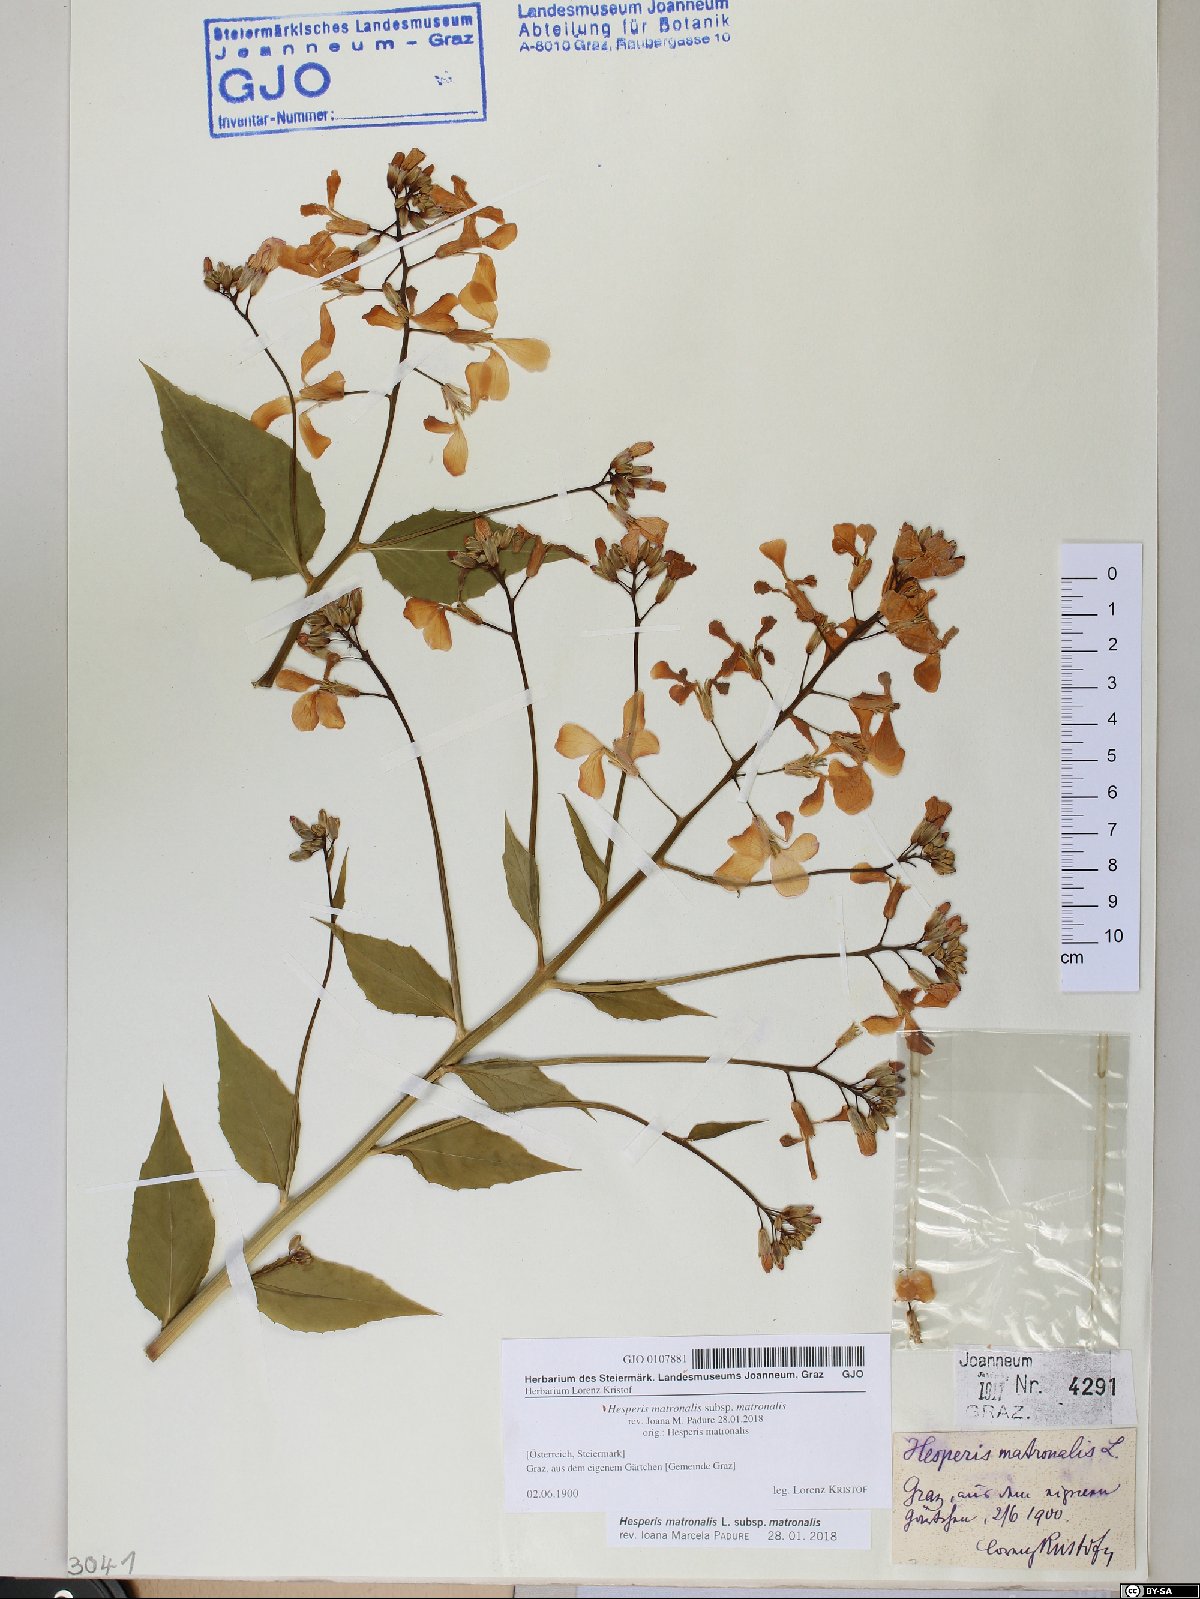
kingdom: Plantae
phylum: Tracheophyta
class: Magnoliopsida
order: Brassicales
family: Brassicaceae
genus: Hesperis
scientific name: Hesperis matronalis
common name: Dame's-violet
